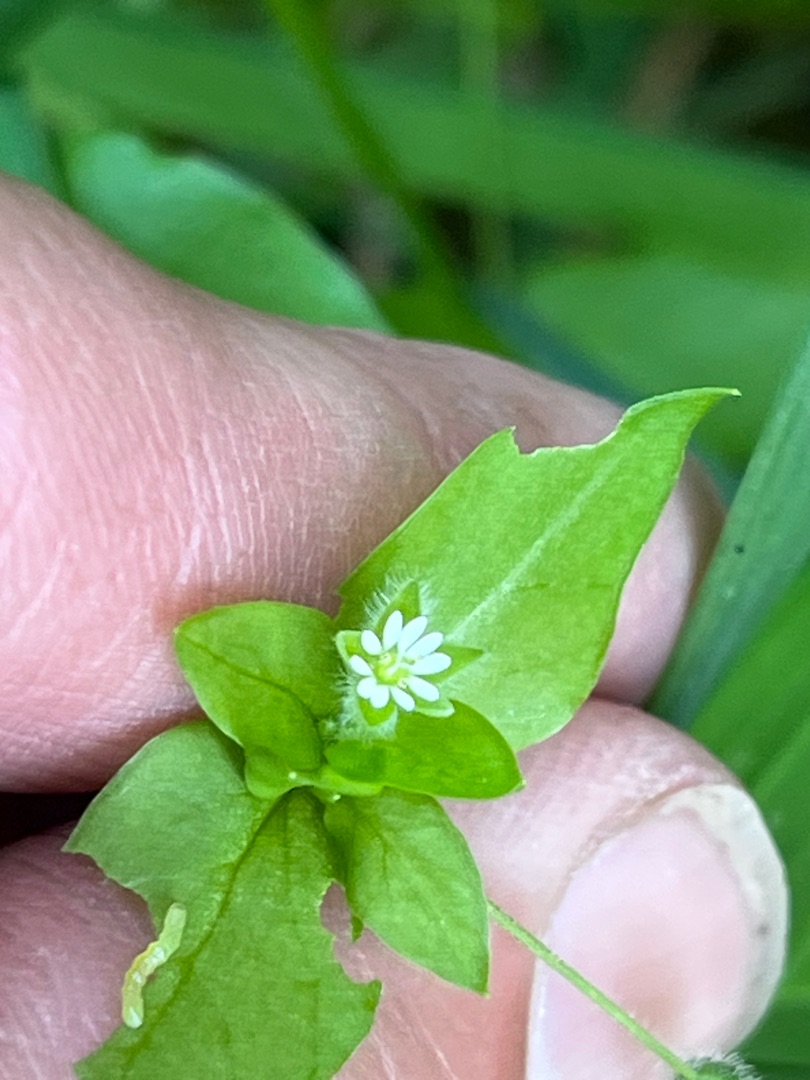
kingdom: Plantae
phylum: Tracheophyta
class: Magnoliopsida
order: Caryophyllales
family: Caryophyllaceae
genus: Stellaria
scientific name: Stellaria media
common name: Almindelig fuglegræs
